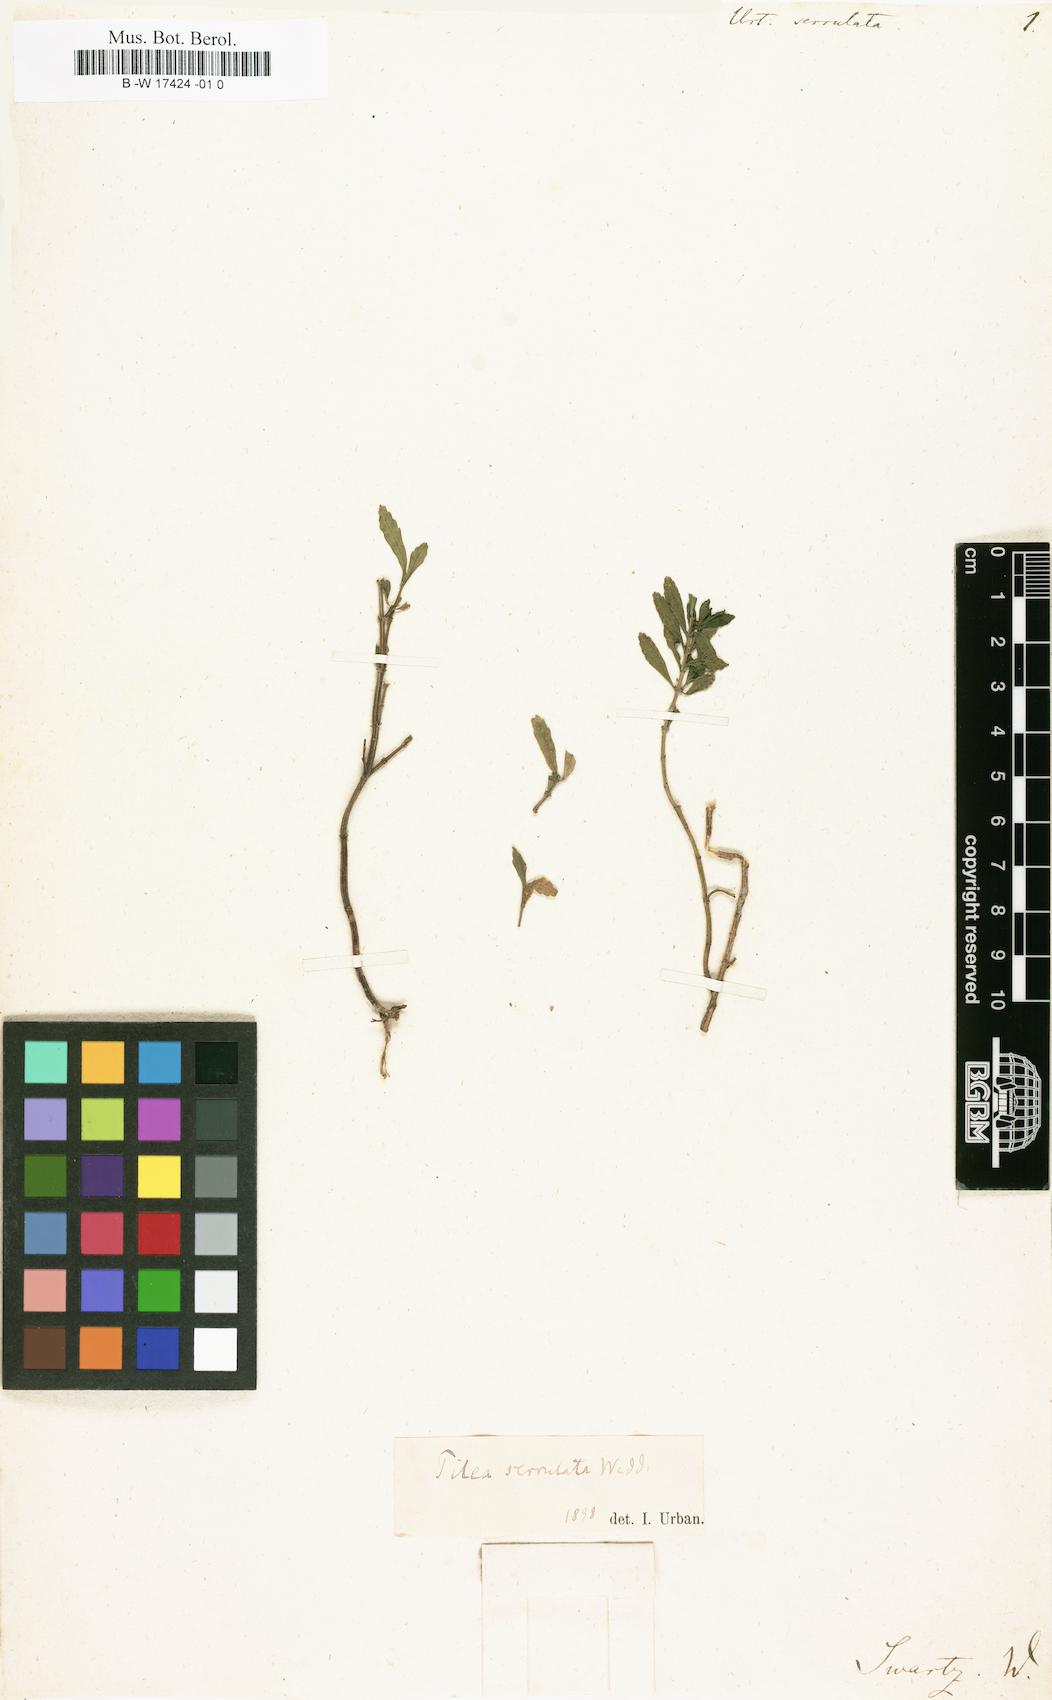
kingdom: Plantae
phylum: Tracheophyta
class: Magnoliopsida
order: Rosales
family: Urticaceae
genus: Pilea
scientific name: Pilea serrulata
